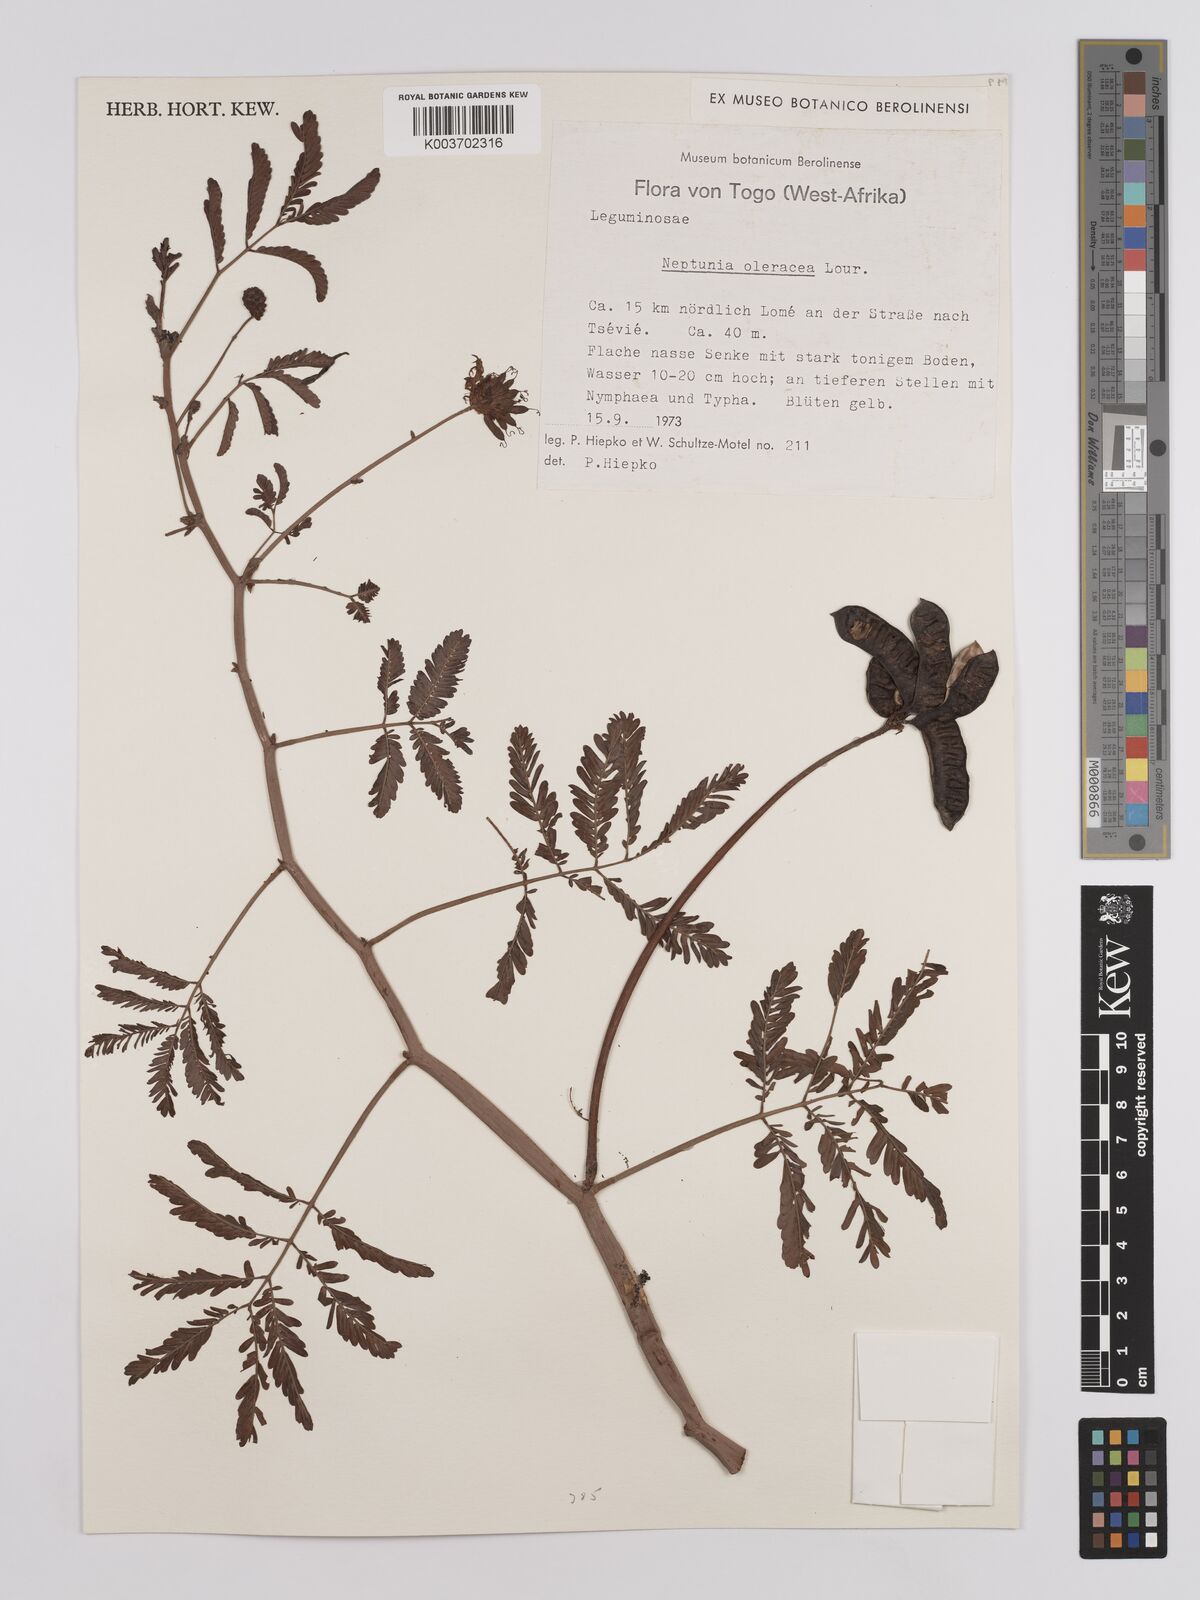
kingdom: Plantae
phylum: Tracheophyta
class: Magnoliopsida
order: Fabales
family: Fabaceae
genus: Neptunia
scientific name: Neptunia prostrata
